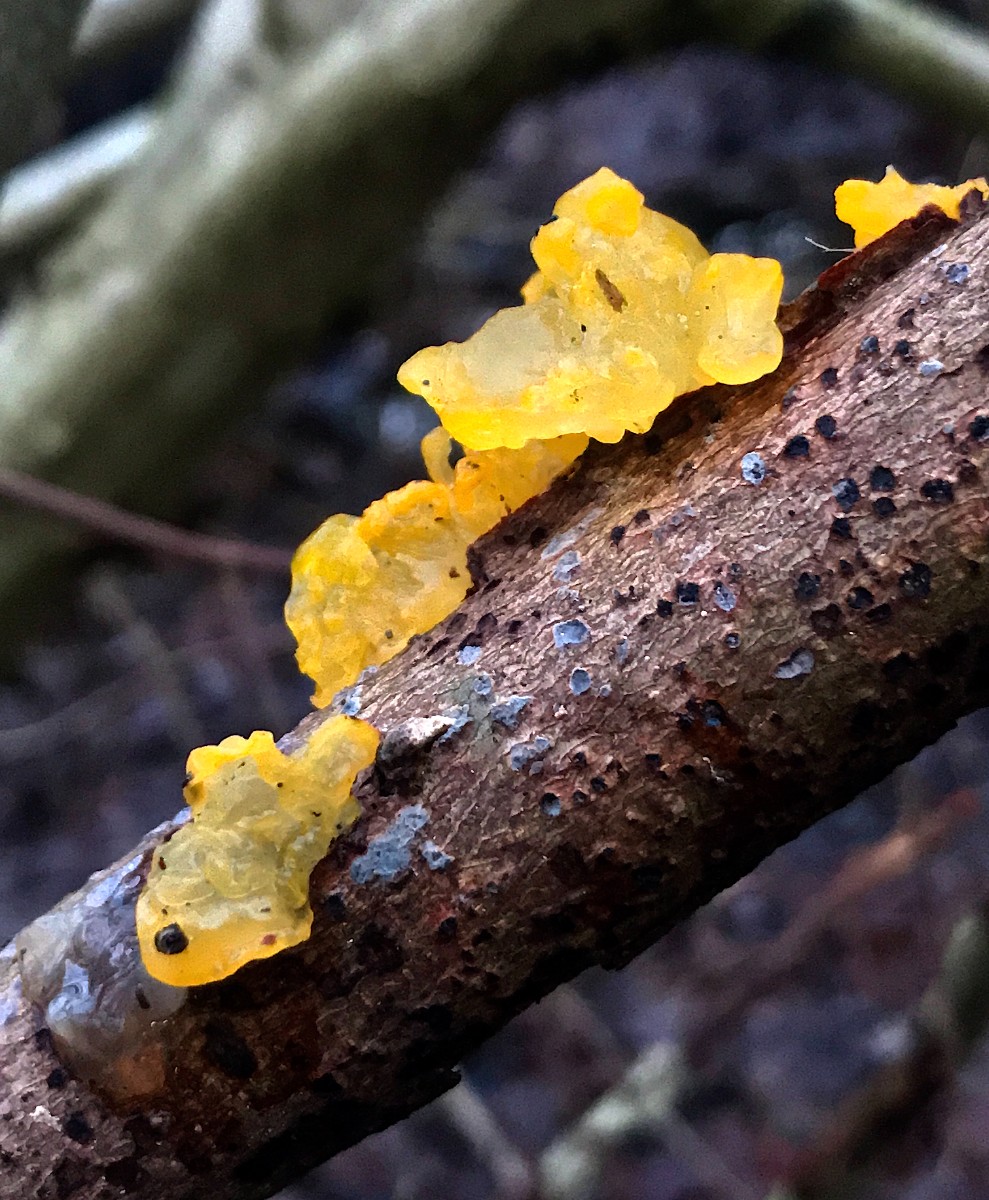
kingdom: Fungi
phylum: Basidiomycota
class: Tremellomycetes
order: Tremellales
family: Tremellaceae
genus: Tremella
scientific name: Tremella mesenterica
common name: gul bævresvamp
